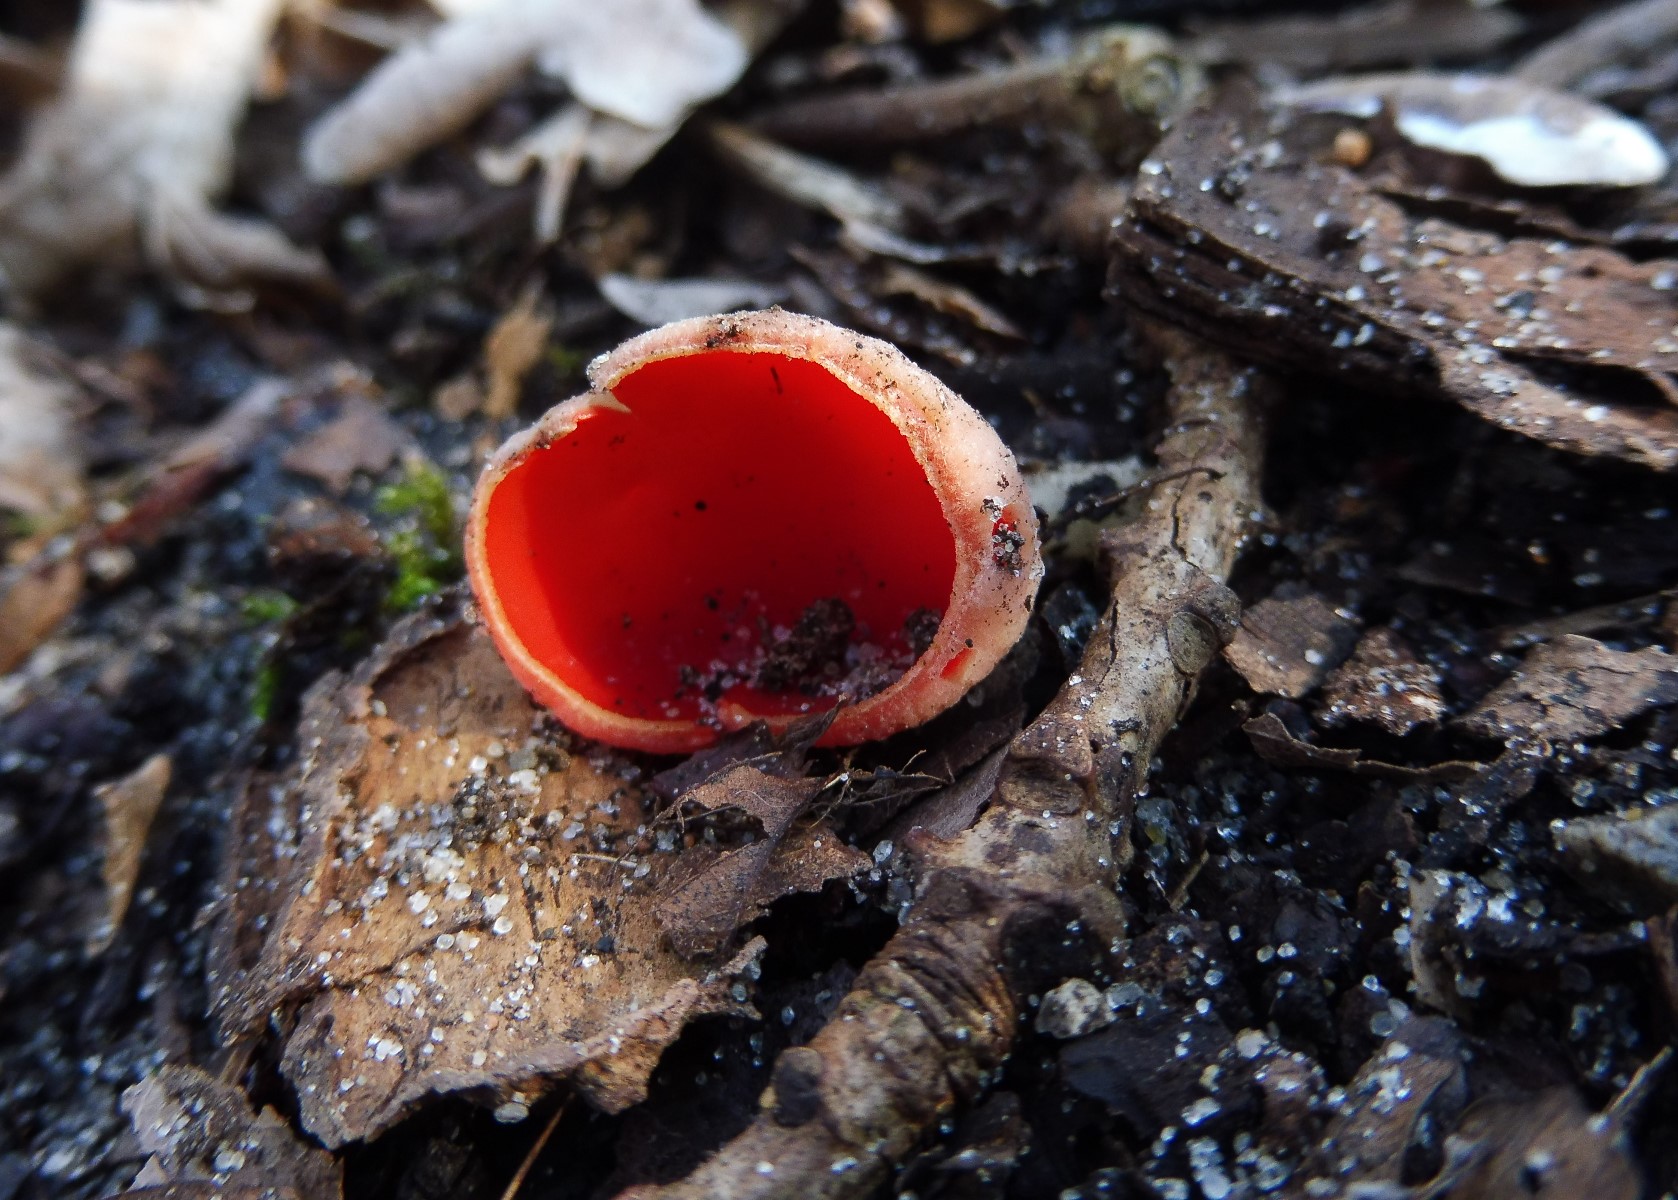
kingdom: Fungi
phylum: Ascomycota
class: Pezizomycetes
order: Pezizales
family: Sarcoscyphaceae
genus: Sarcoscypha
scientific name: Sarcoscypha austriaca
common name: krølhåret pragtbæger
